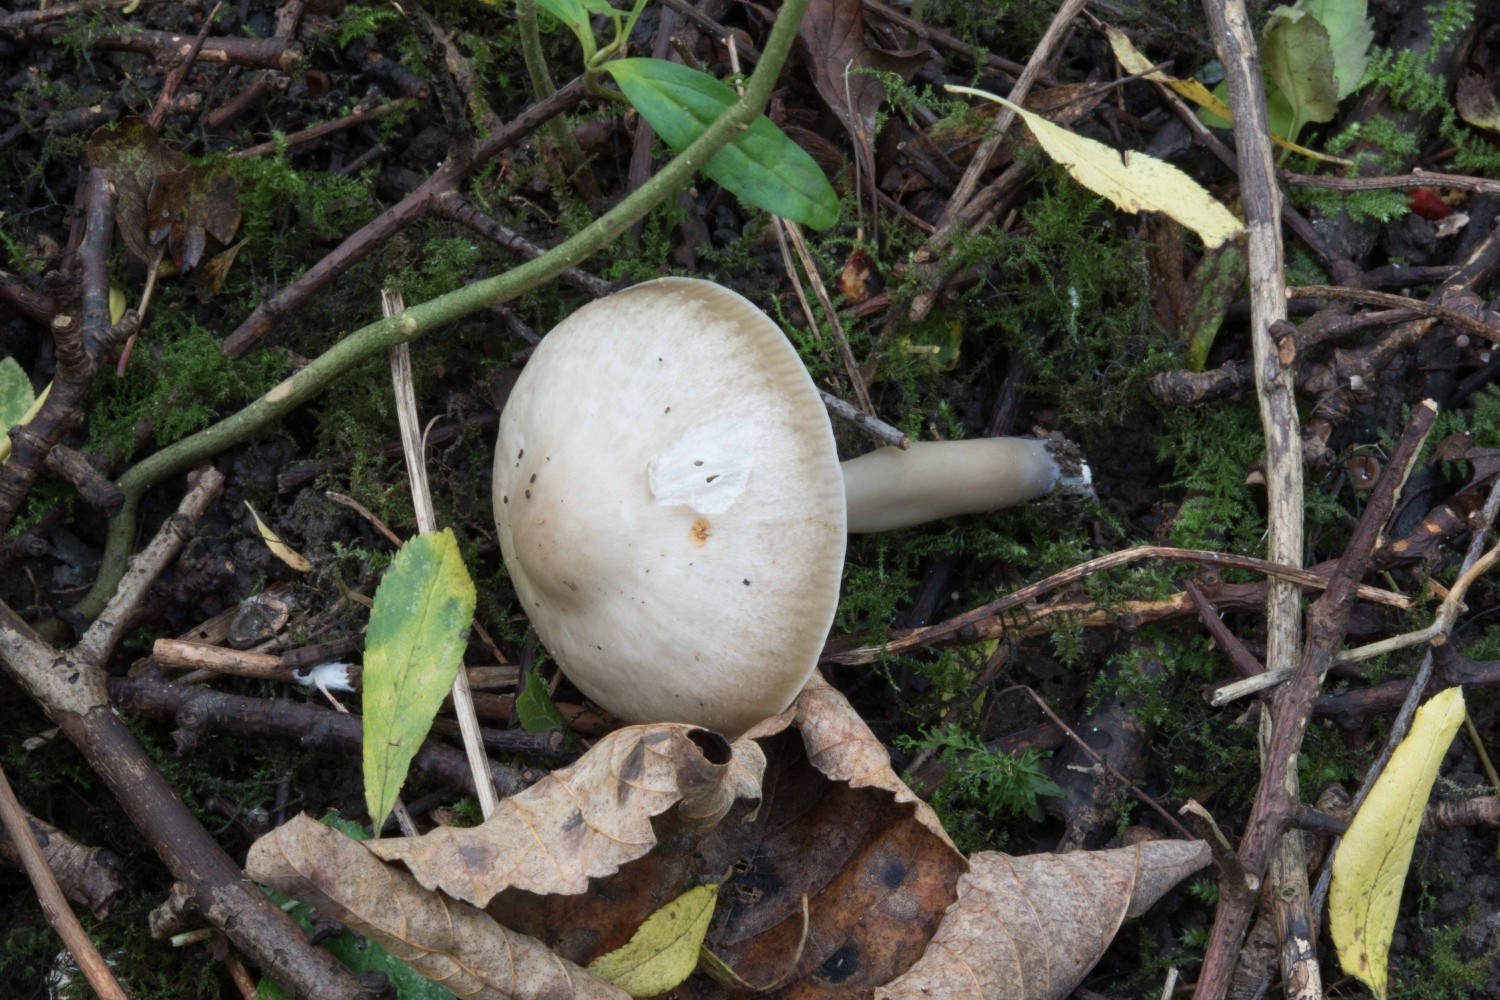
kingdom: Fungi
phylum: Basidiomycota
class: Agaricomycetes
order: Agaricales
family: Hygrophoraceae
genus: Gliophorus
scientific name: Gliophorus irrigatus
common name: slimet vokshat
